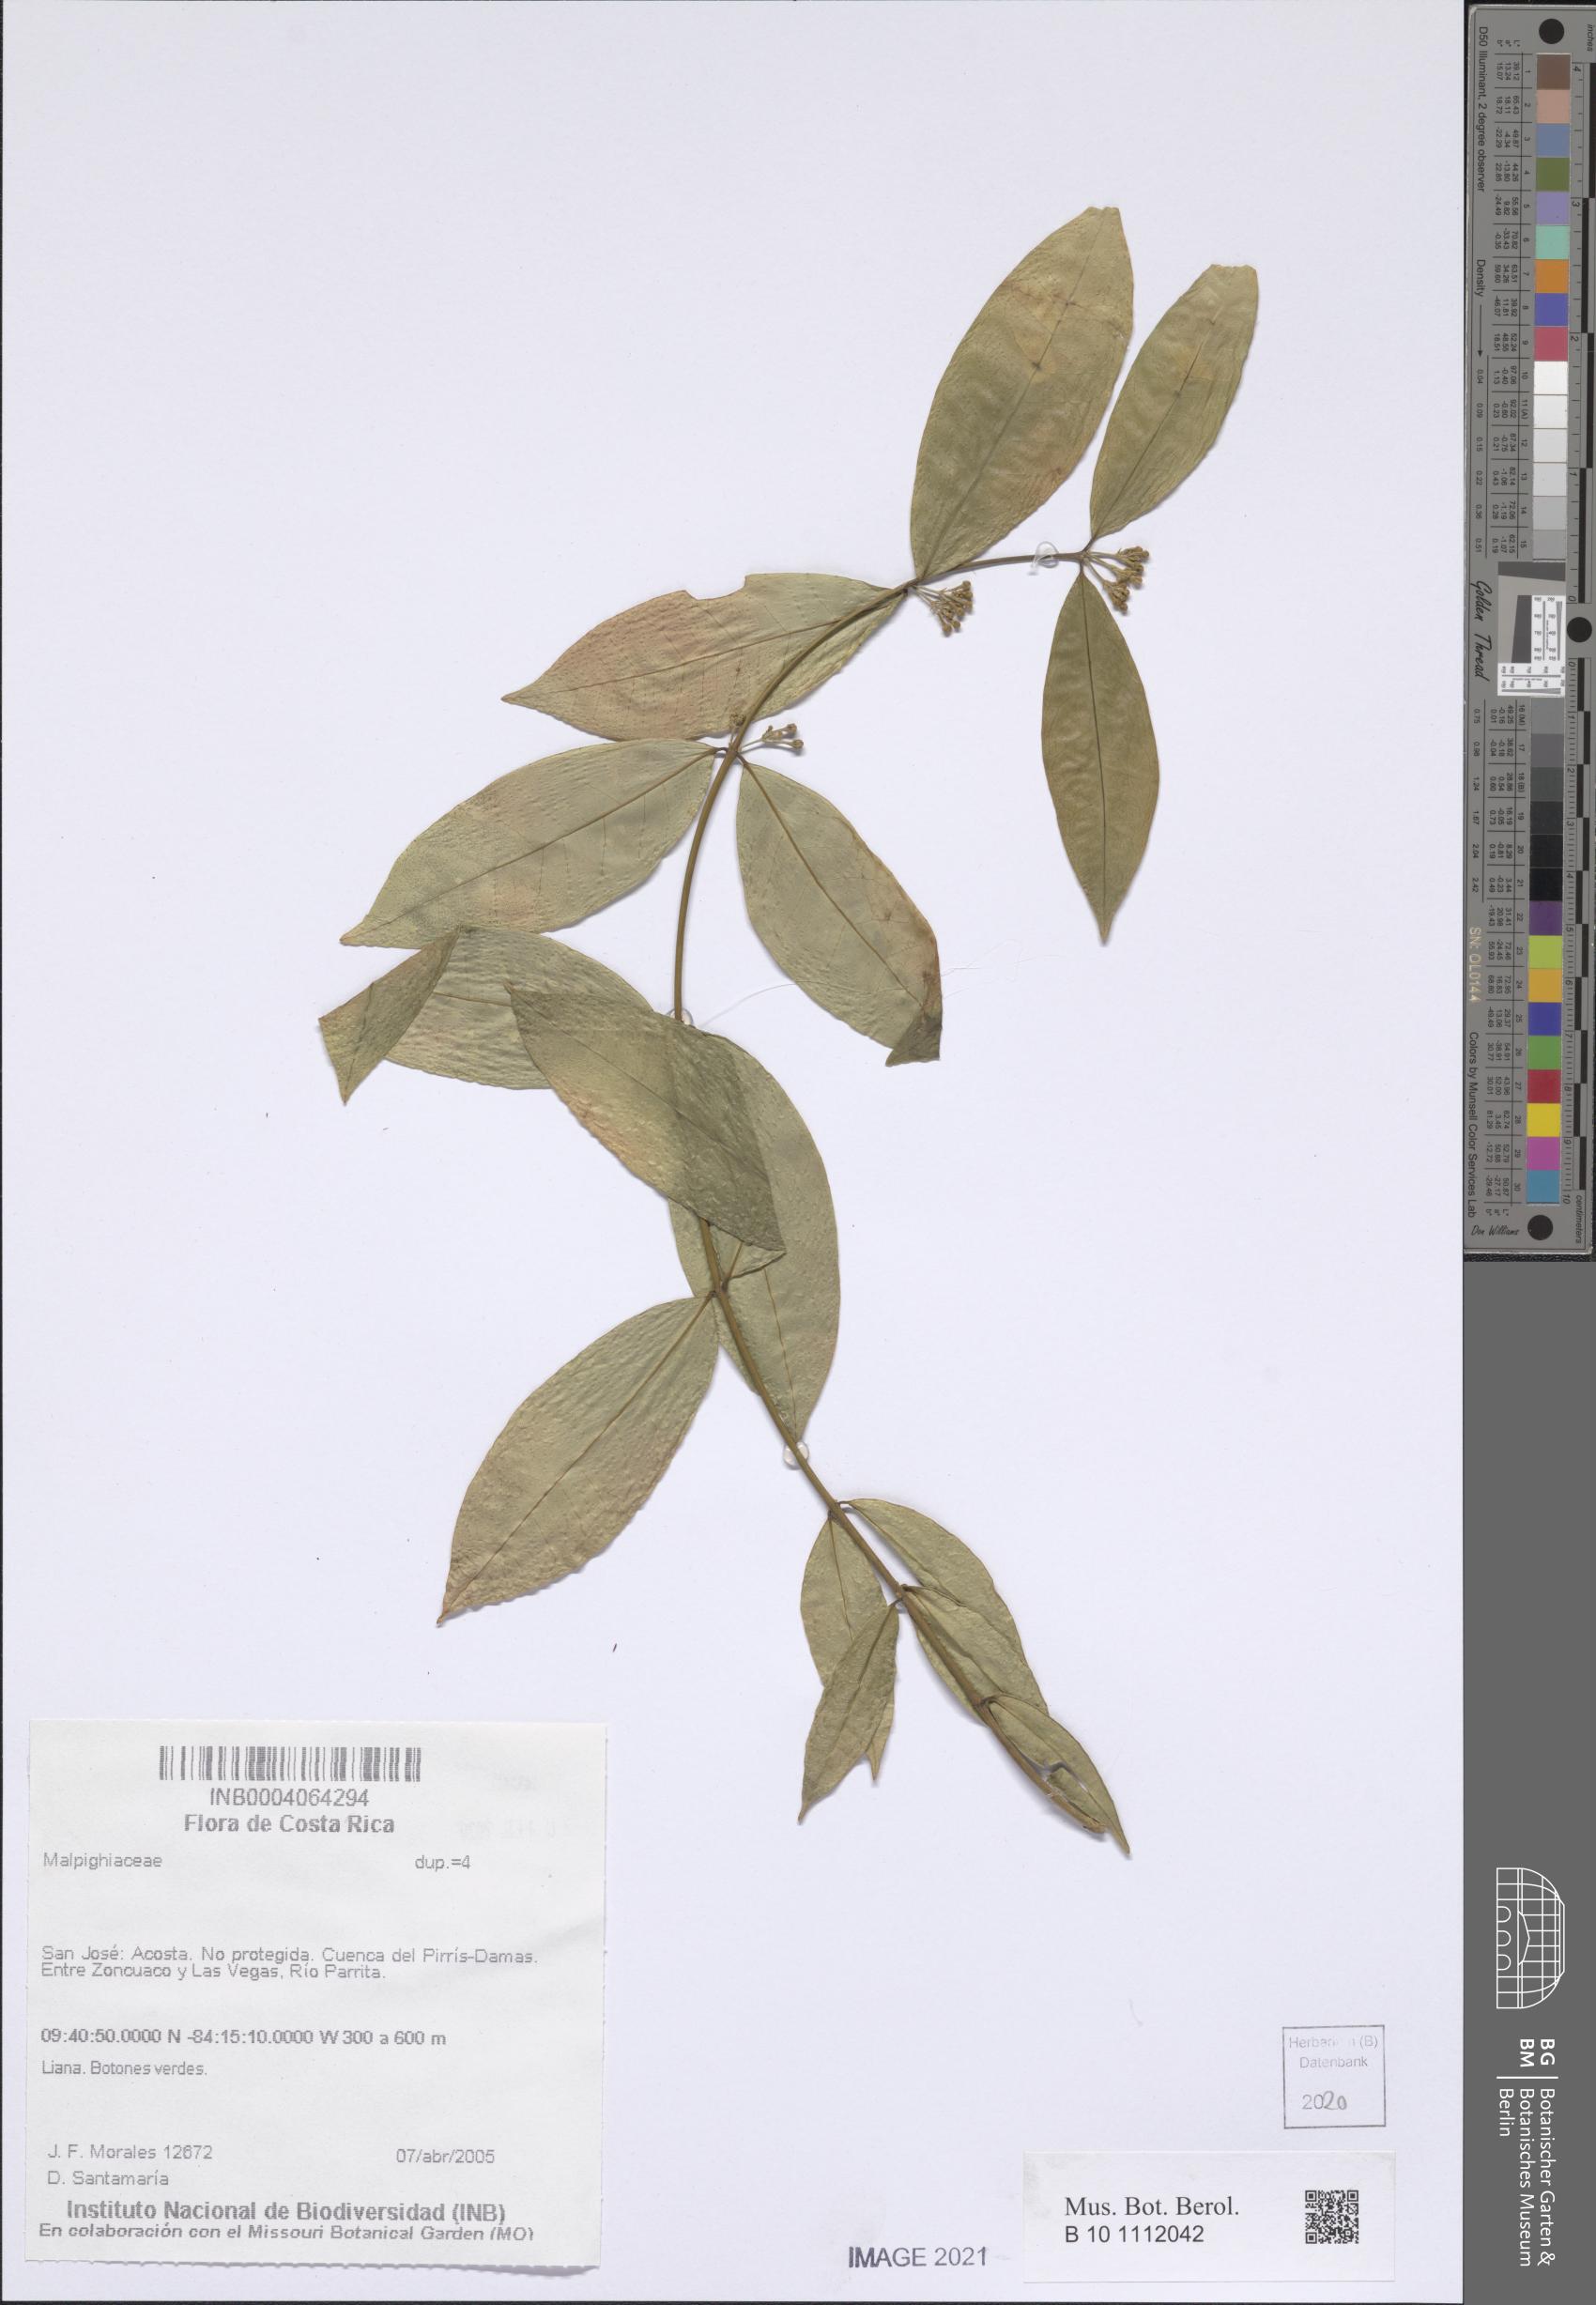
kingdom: Plantae
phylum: Tracheophyta
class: Magnoliopsida
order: Malpighiales
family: Malpighiaceae
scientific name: Malpighiaceae
